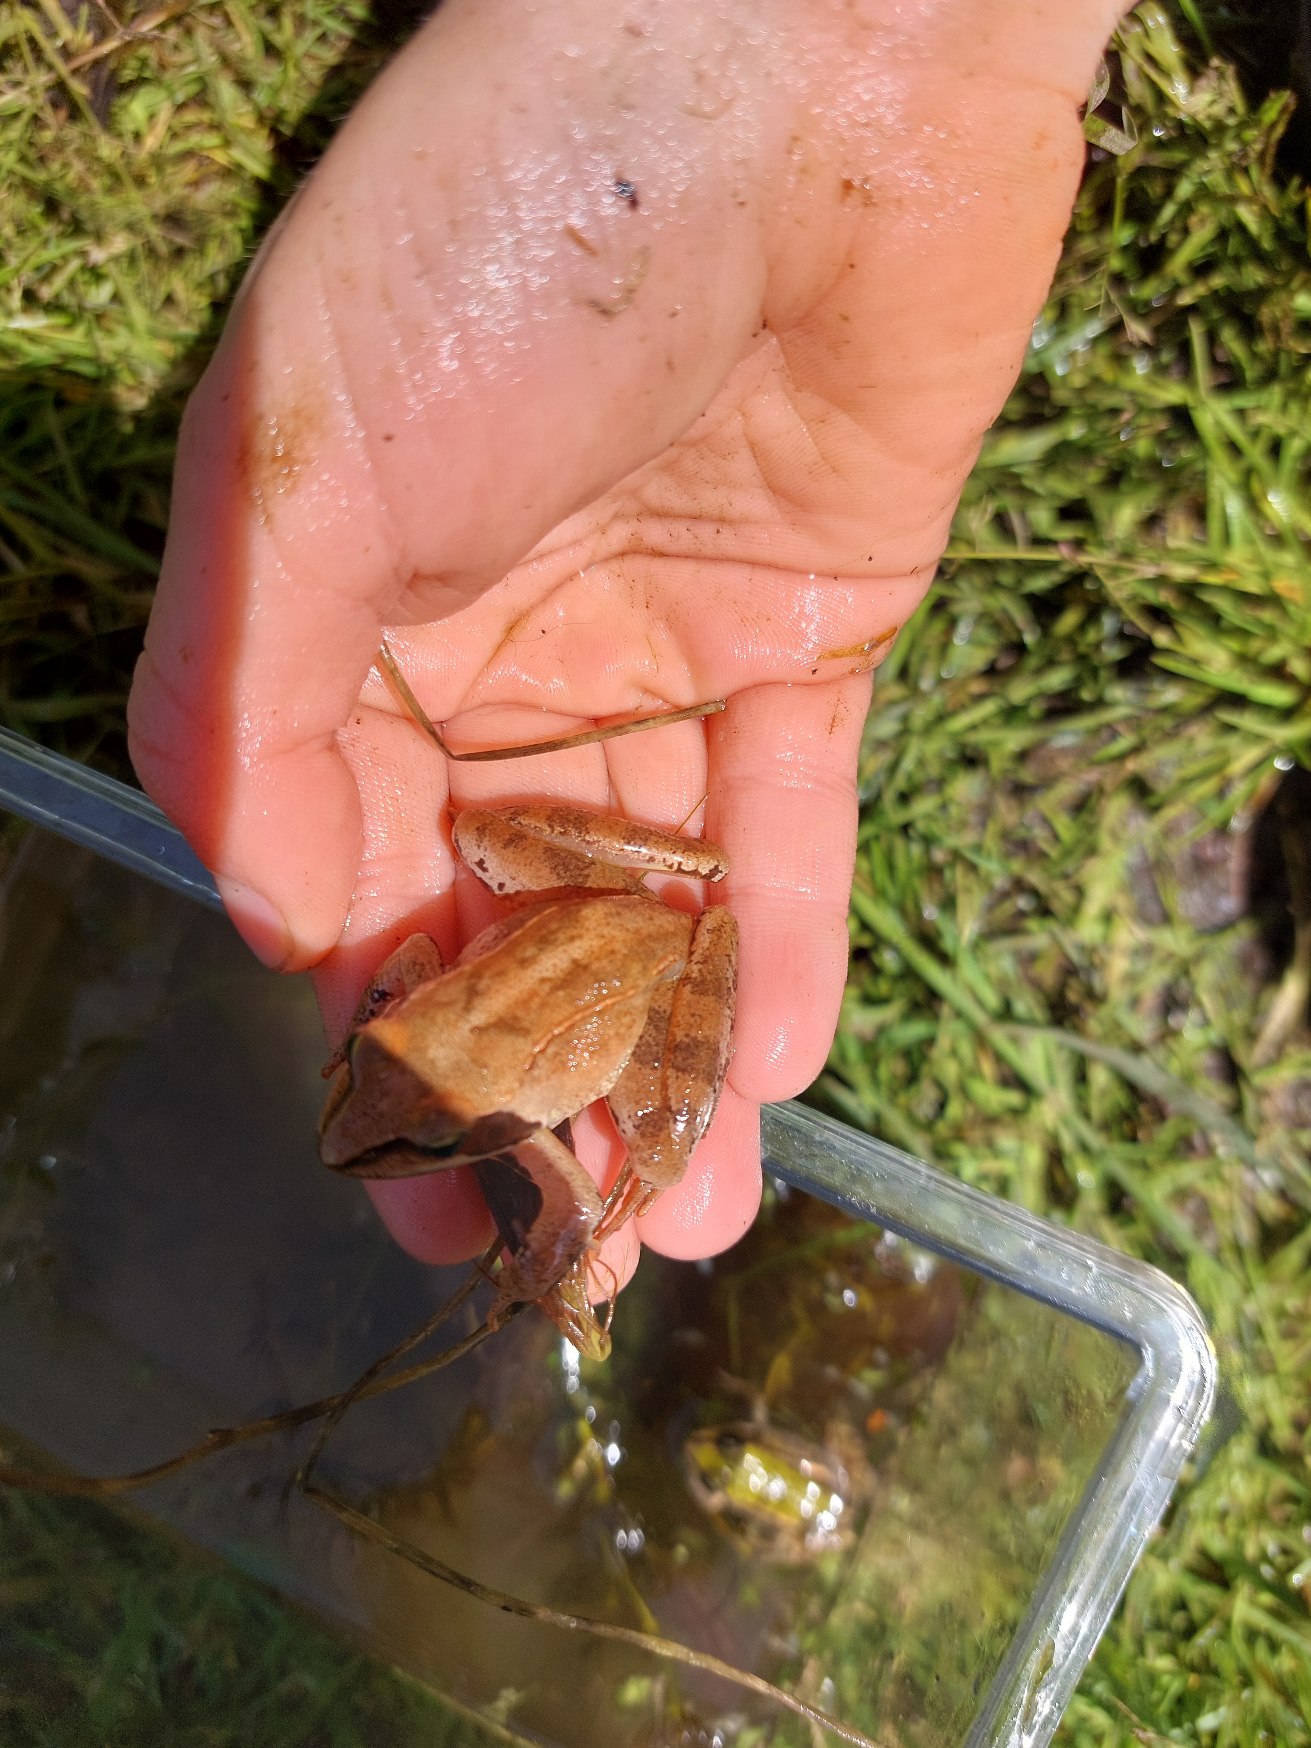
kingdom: Animalia
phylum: Chordata
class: Amphibia
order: Anura
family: Ranidae
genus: Rana
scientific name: Rana dalmatina
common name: Springfrø
